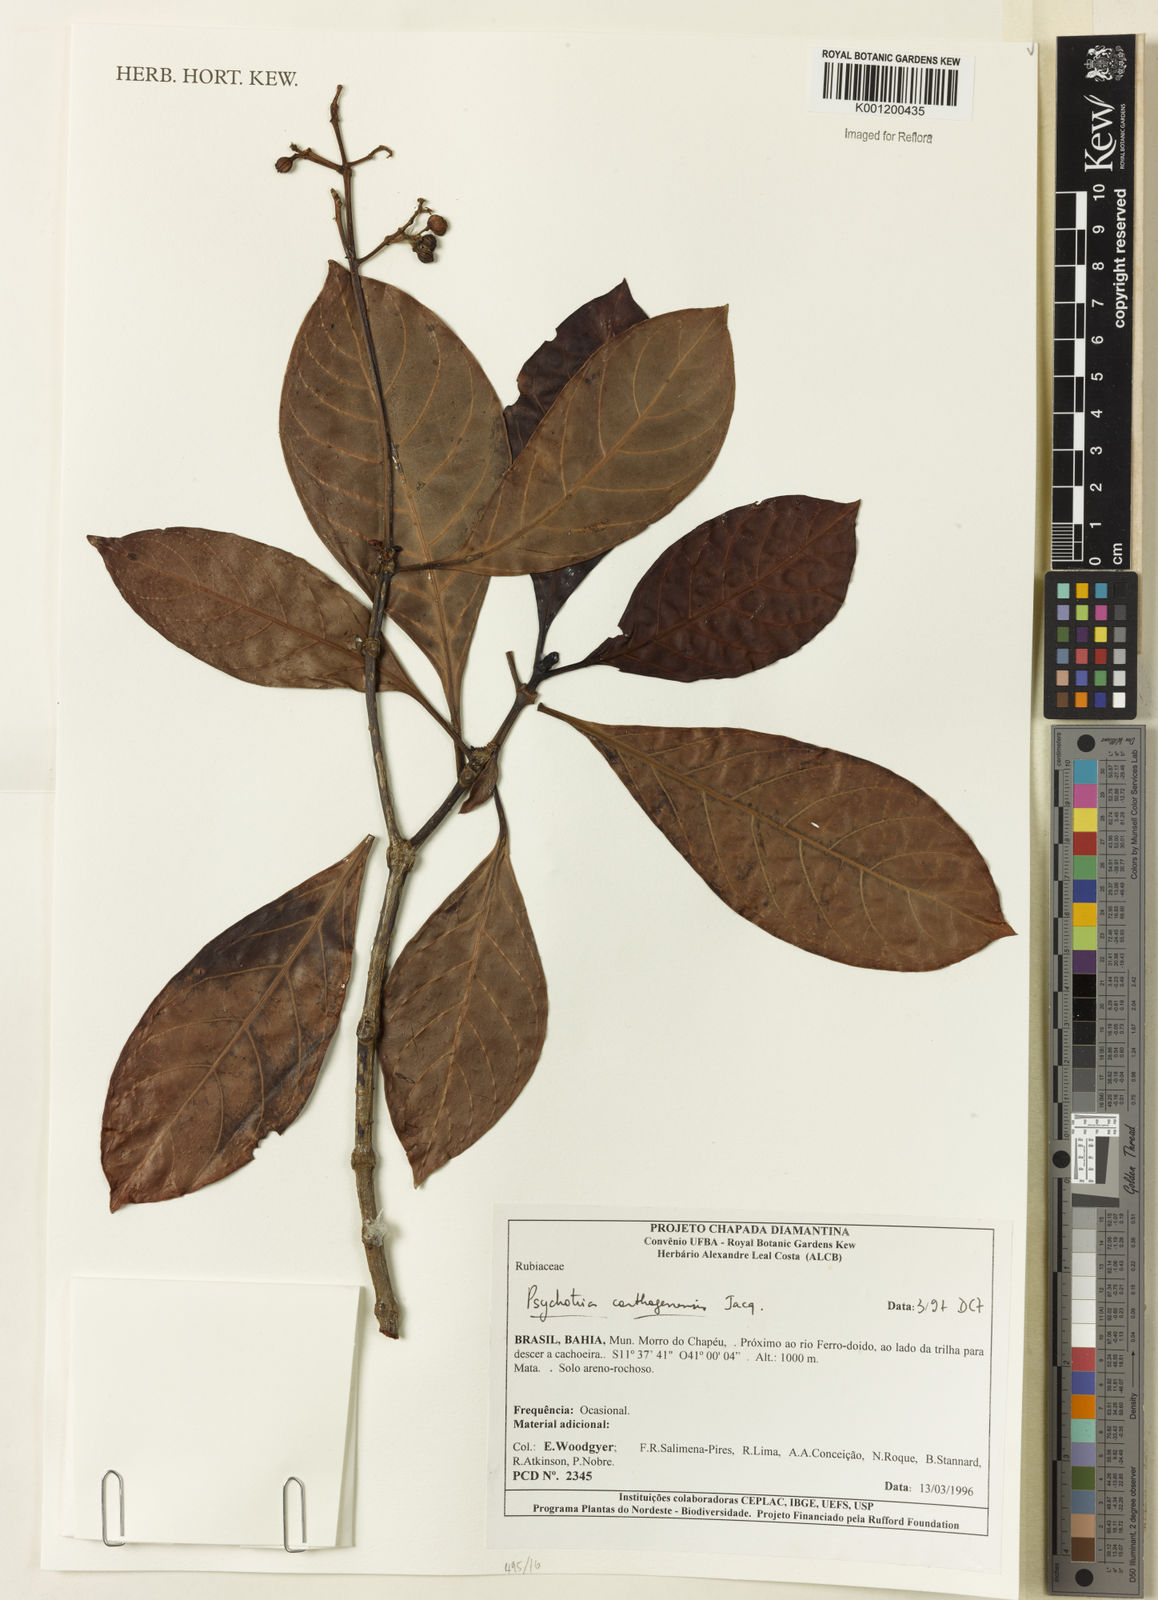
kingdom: Plantae
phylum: Tracheophyta
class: Magnoliopsida
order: Gentianales
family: Rubiaceae
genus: Psychotria
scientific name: Psychotria carthagenensis
